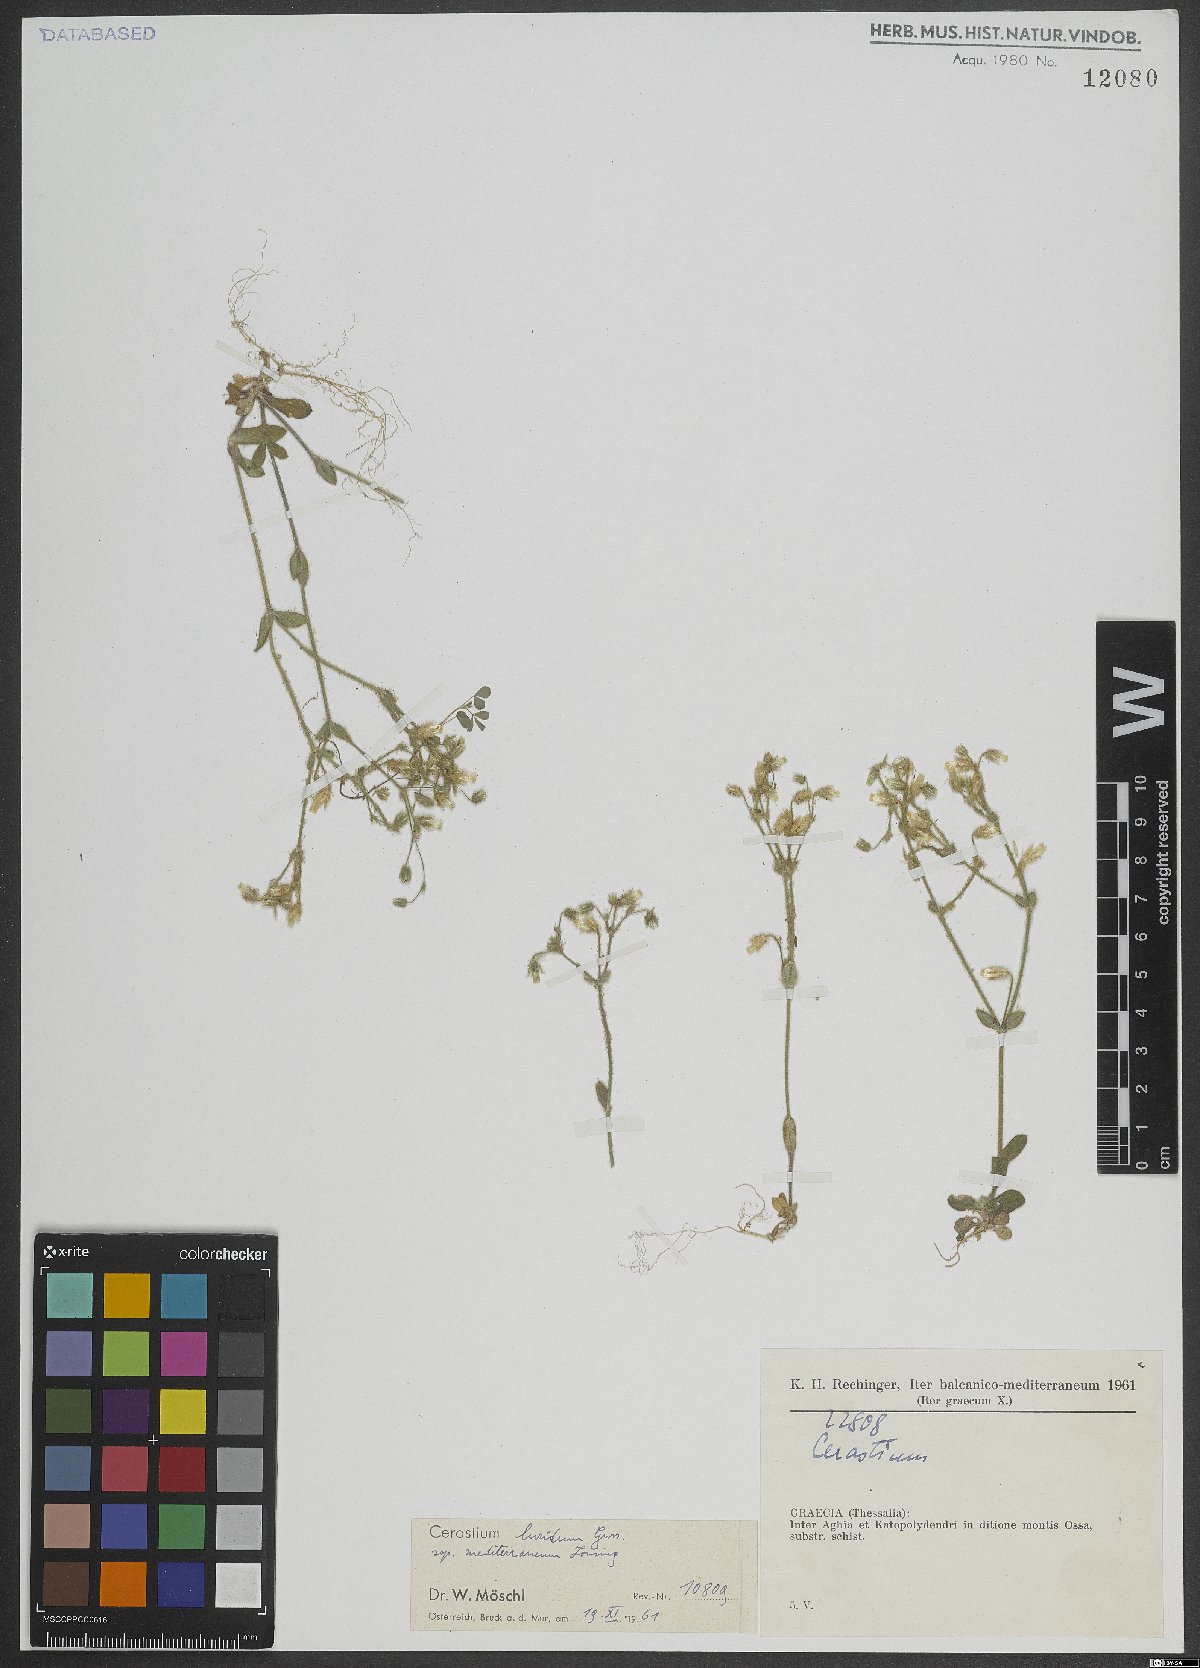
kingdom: Plantae
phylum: Tracheophyta
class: Magnoliopsida
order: Caryophyllales
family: Caryophyllaceae
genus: Cerastium
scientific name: Cerastium brachypetalum
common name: Grey mouse-ear
